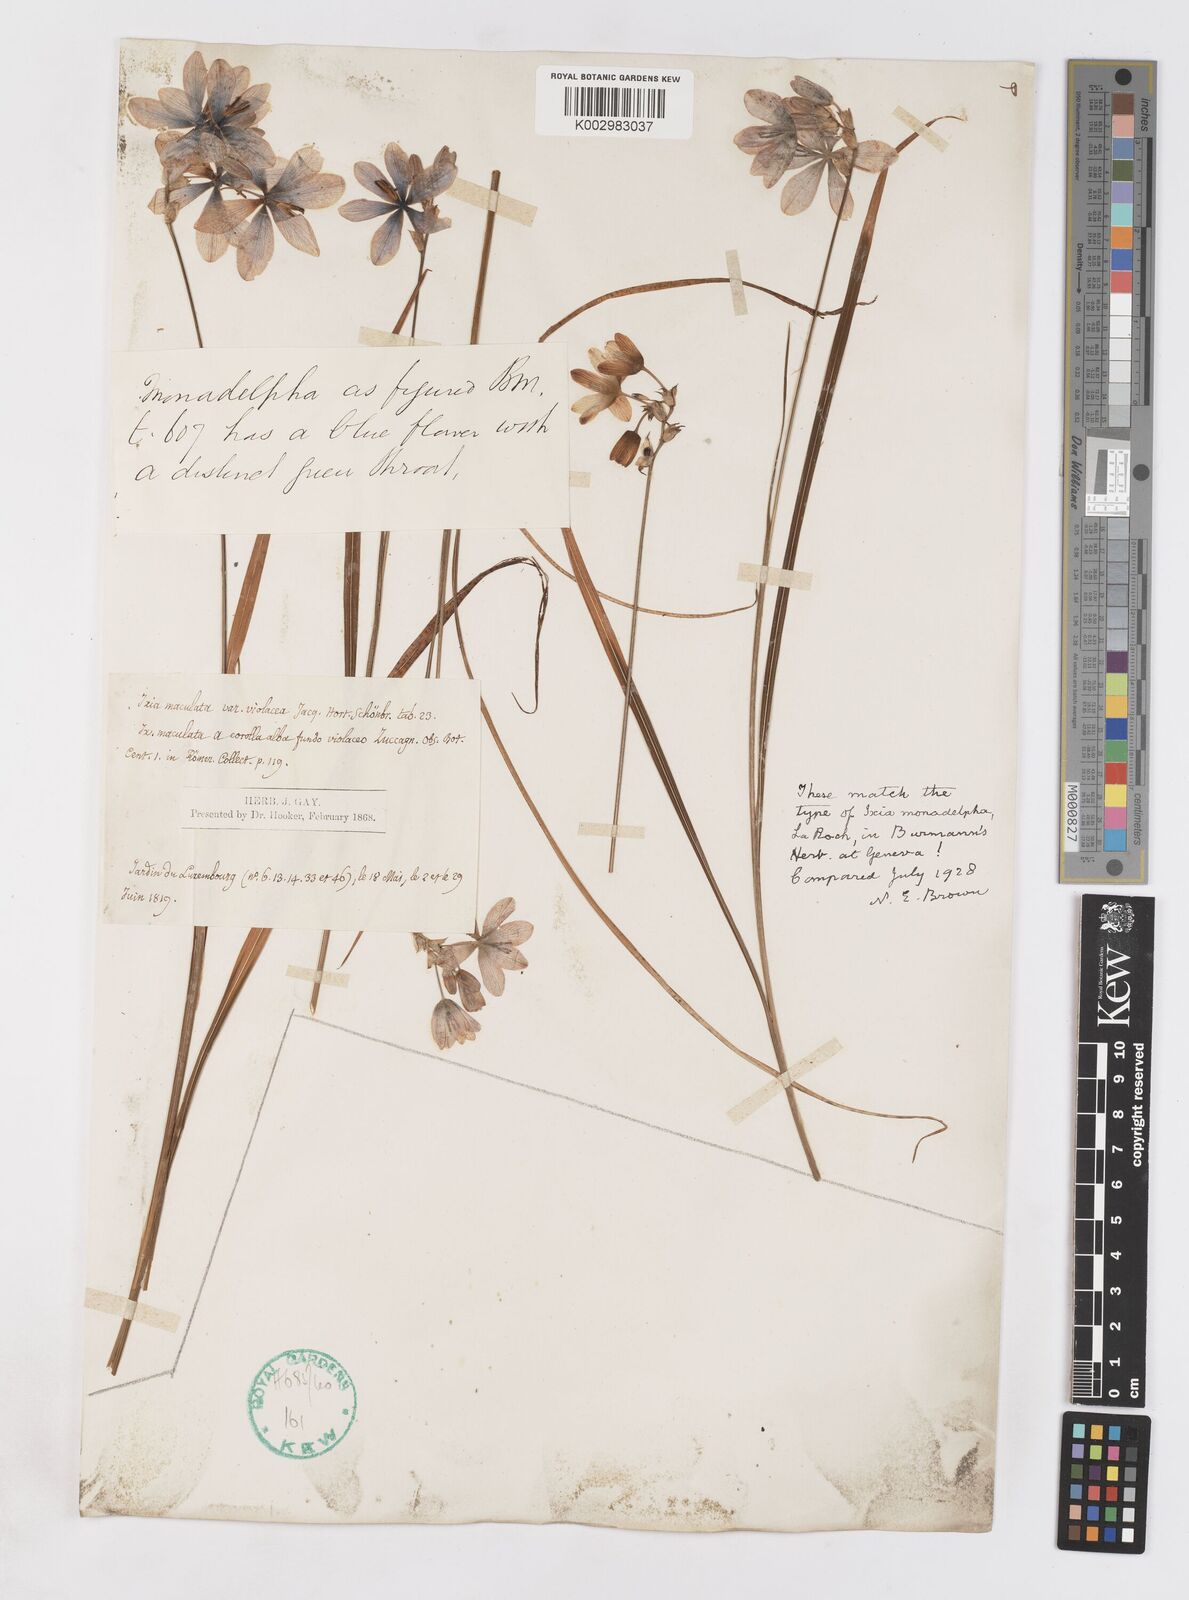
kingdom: Plantae
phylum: Tracheophyta
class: Liliopsida
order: Asparagales
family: Iridaceae
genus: Ixia
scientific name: Ixia polystachya
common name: White-and-yellow-flower cornlily
